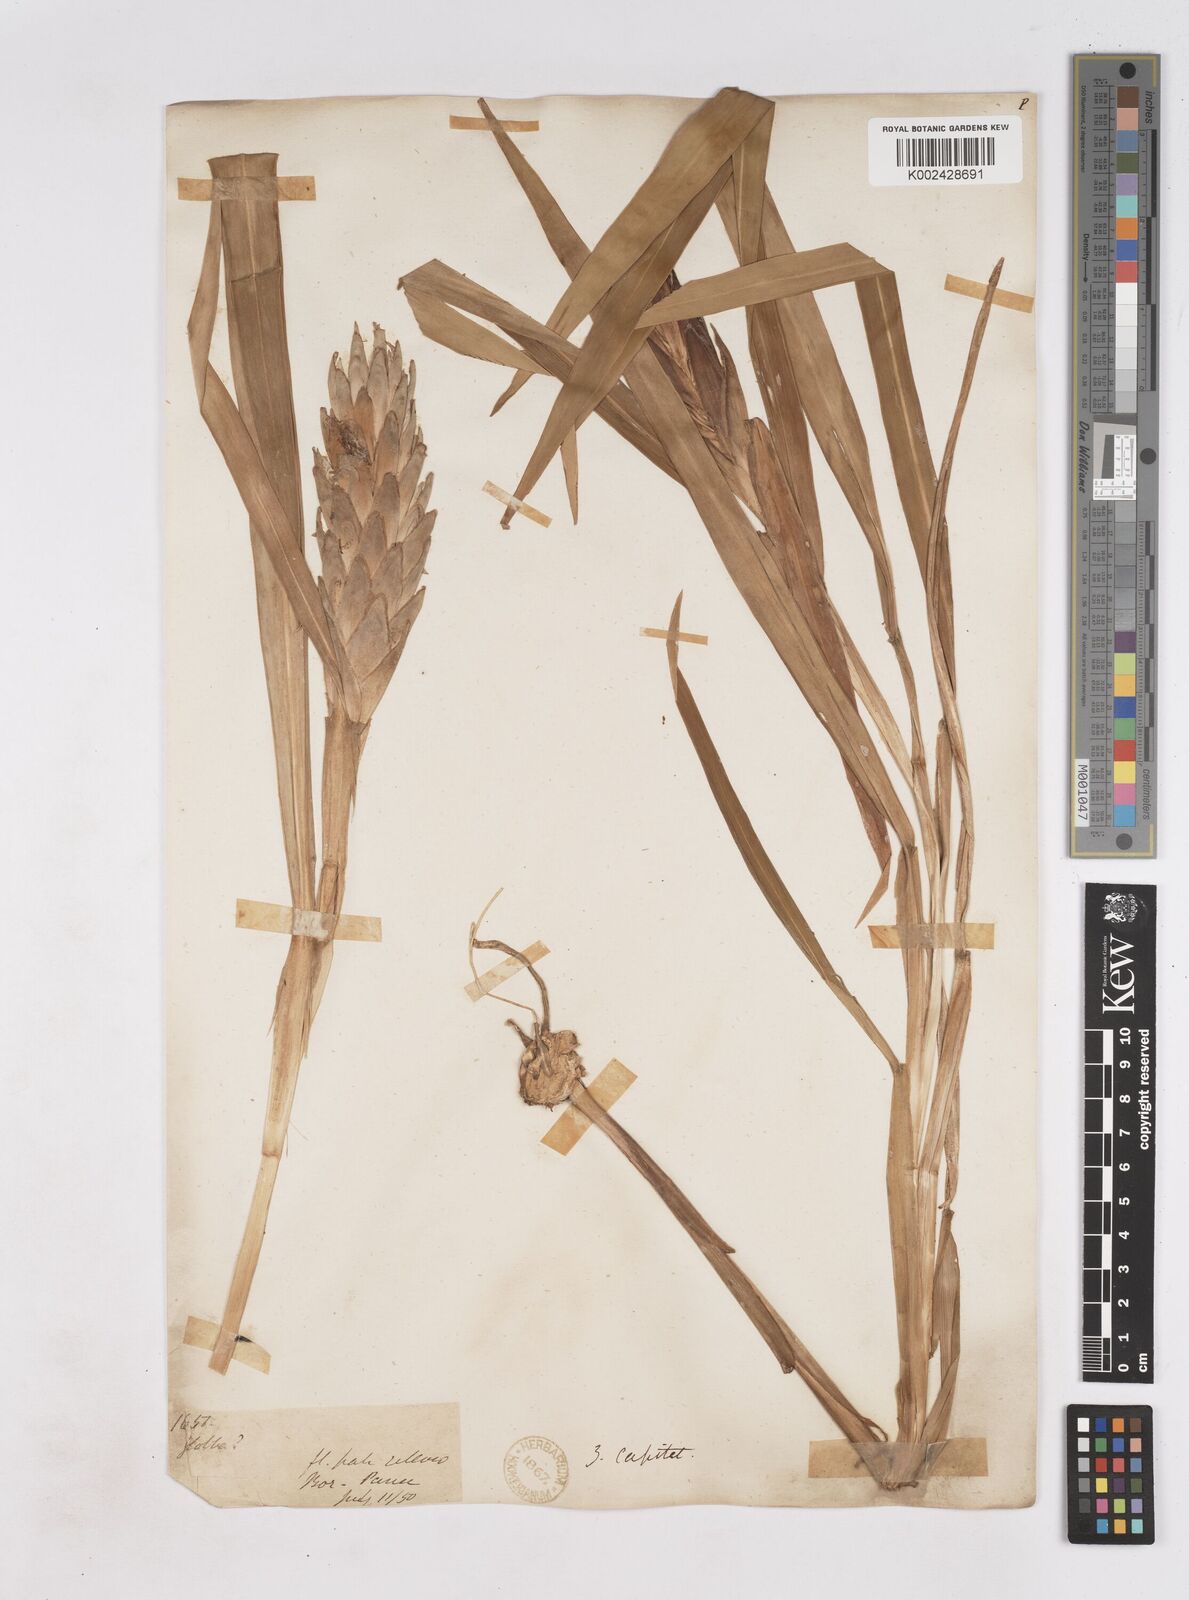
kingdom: Plantae
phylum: Tracheophyta
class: Liliopsida
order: Zingiberales
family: Zingiberaceae
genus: Zingiber
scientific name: Zingiber capitatum
